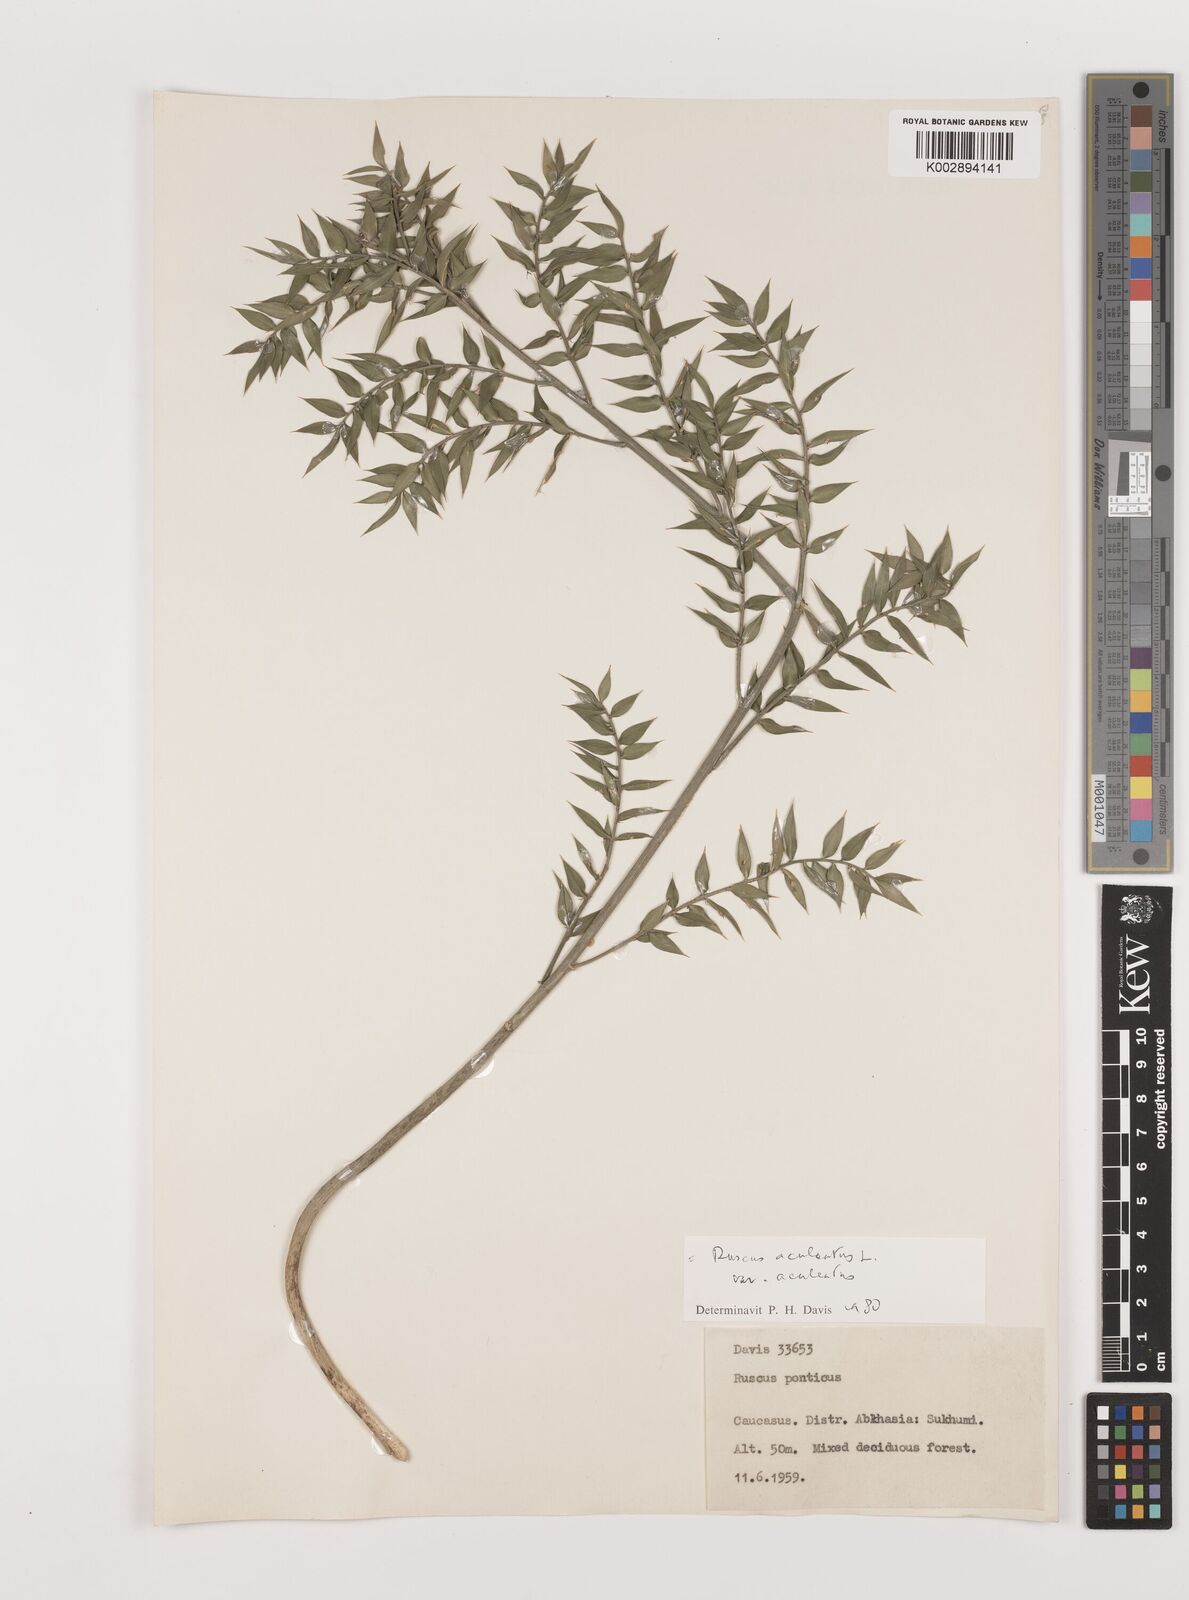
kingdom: Plantae
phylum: Tracheophyta
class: Liliopsida
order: Asparagales
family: Asparagaceae
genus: Ruscus
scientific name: Ruscus aculeatus
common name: Butcher's-broom
